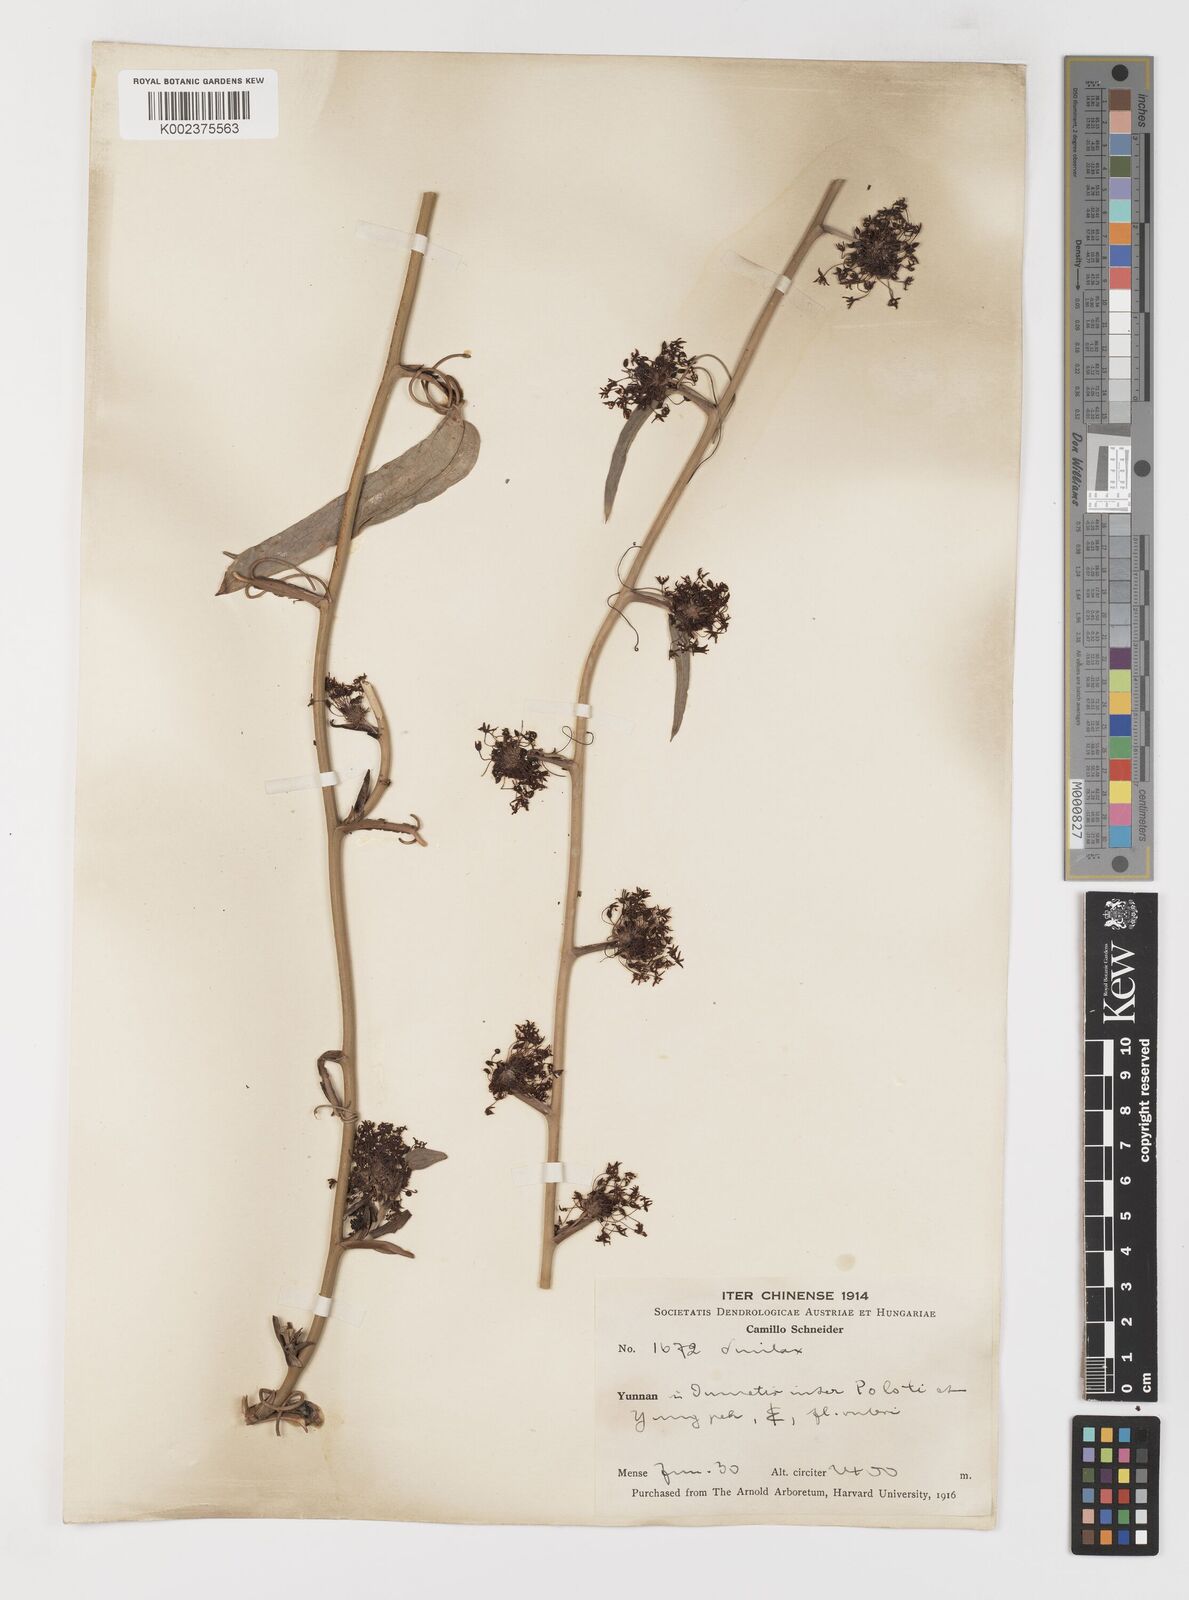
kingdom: Plantae
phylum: Tracheophyta
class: Liliopsida
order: Liliales
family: Smilacaceae
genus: Smilax
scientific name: Smilax lanceifolia
